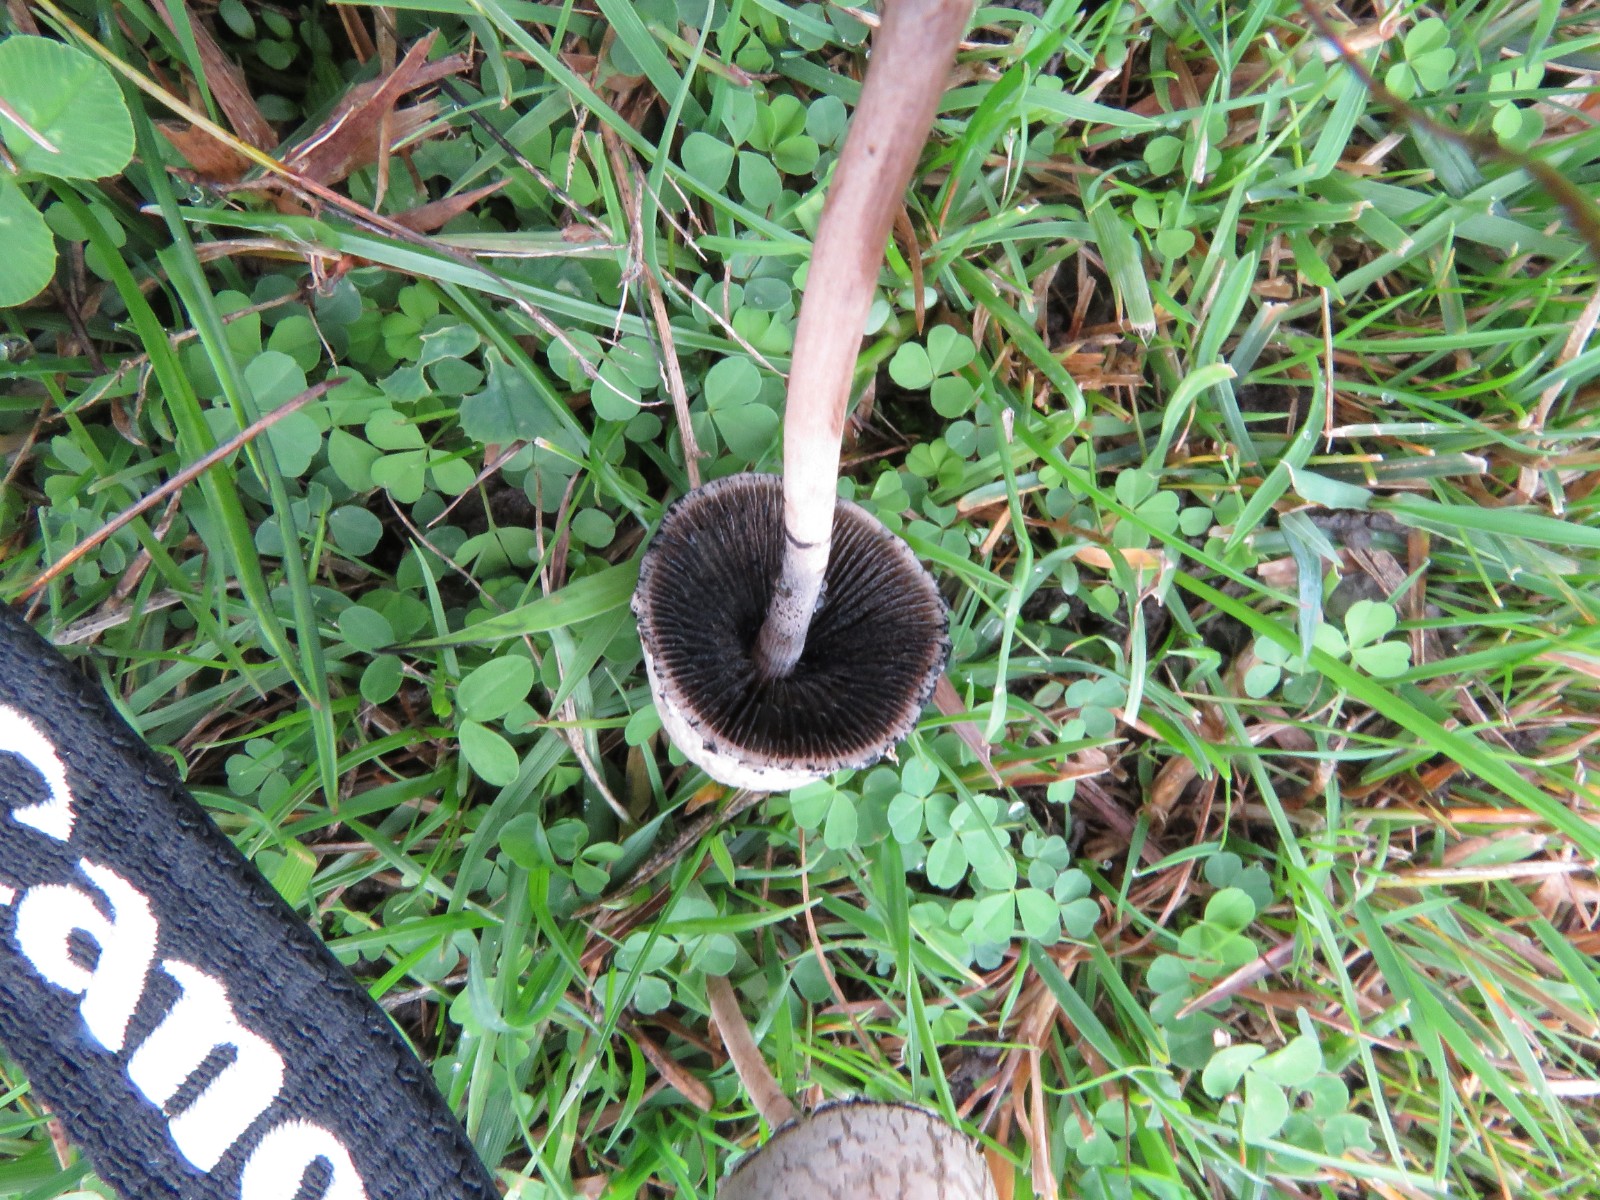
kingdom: Fungi
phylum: Basidiomycota
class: Agaricomycetes
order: Agaricales
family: Bolbitiaceae
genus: Panaeolus
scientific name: Panaeolus papilionaceus
